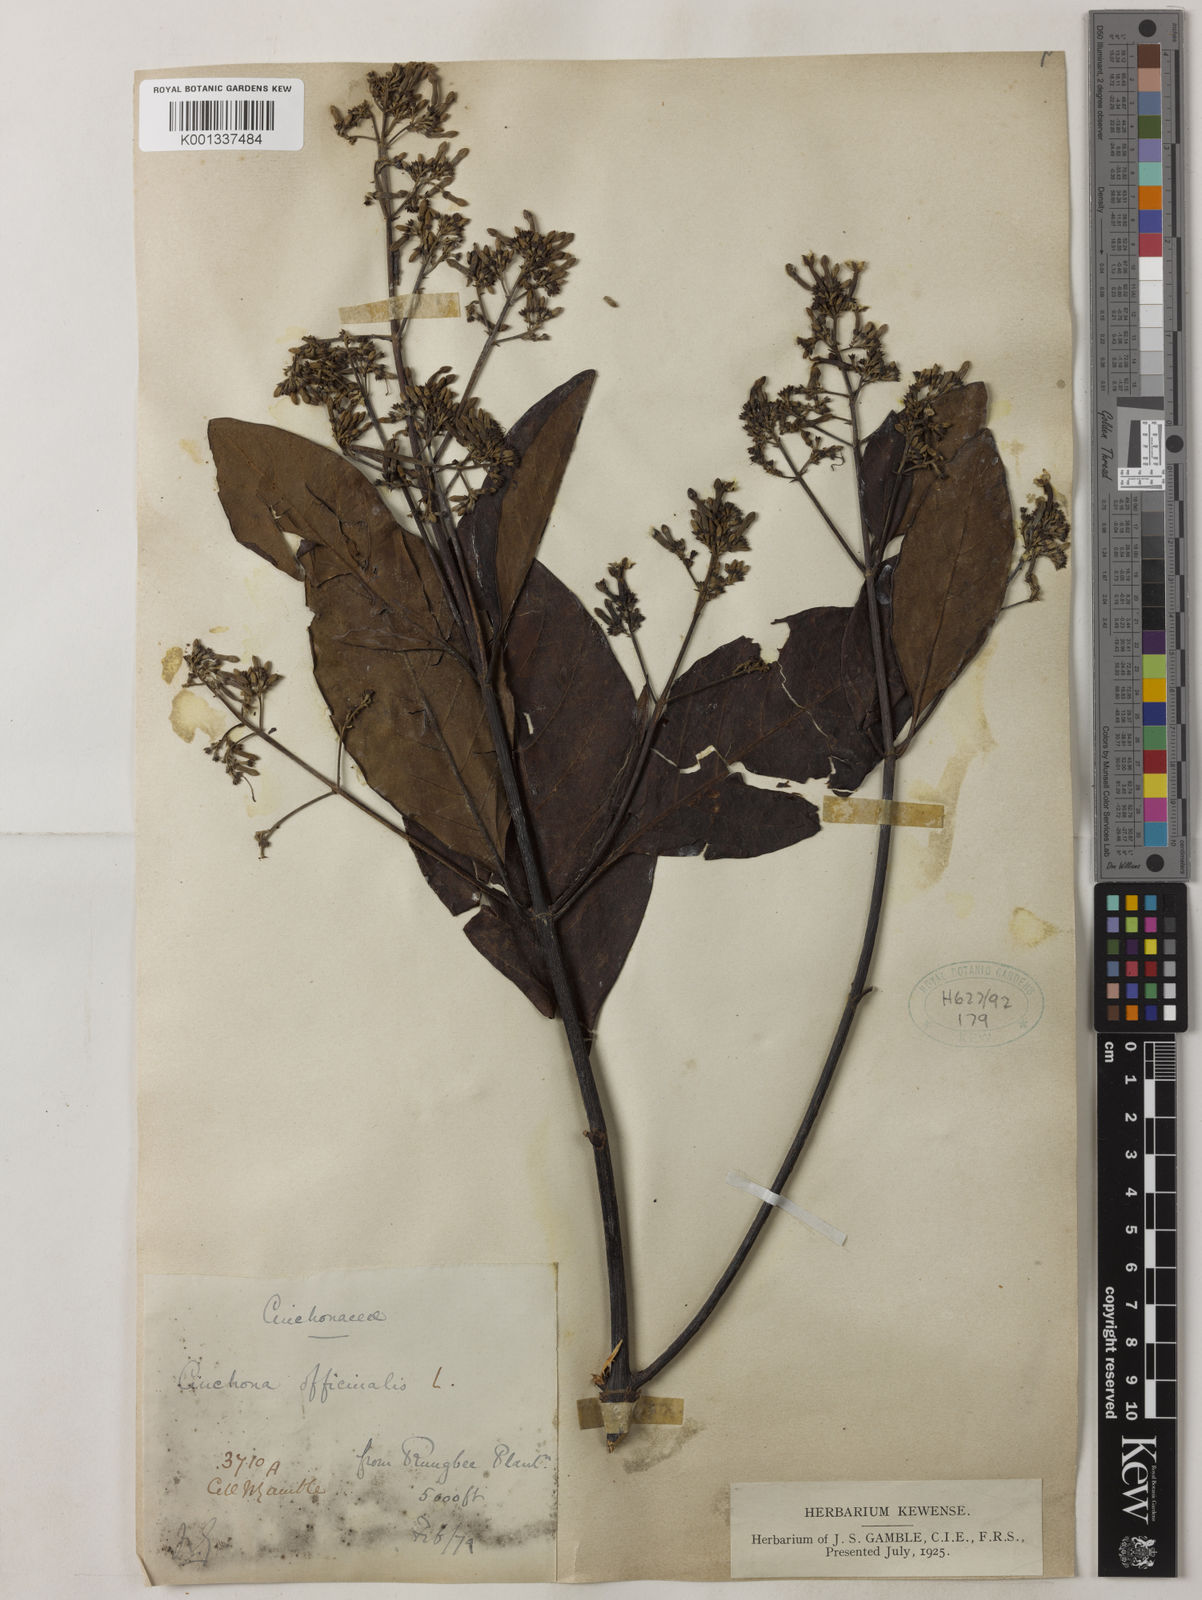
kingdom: Plantae
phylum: Tracheophyta
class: Magnoliopsida
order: Gentianales
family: Rubiaceae
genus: Cinchona
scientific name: Cinchona officinalis
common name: Lojabark
